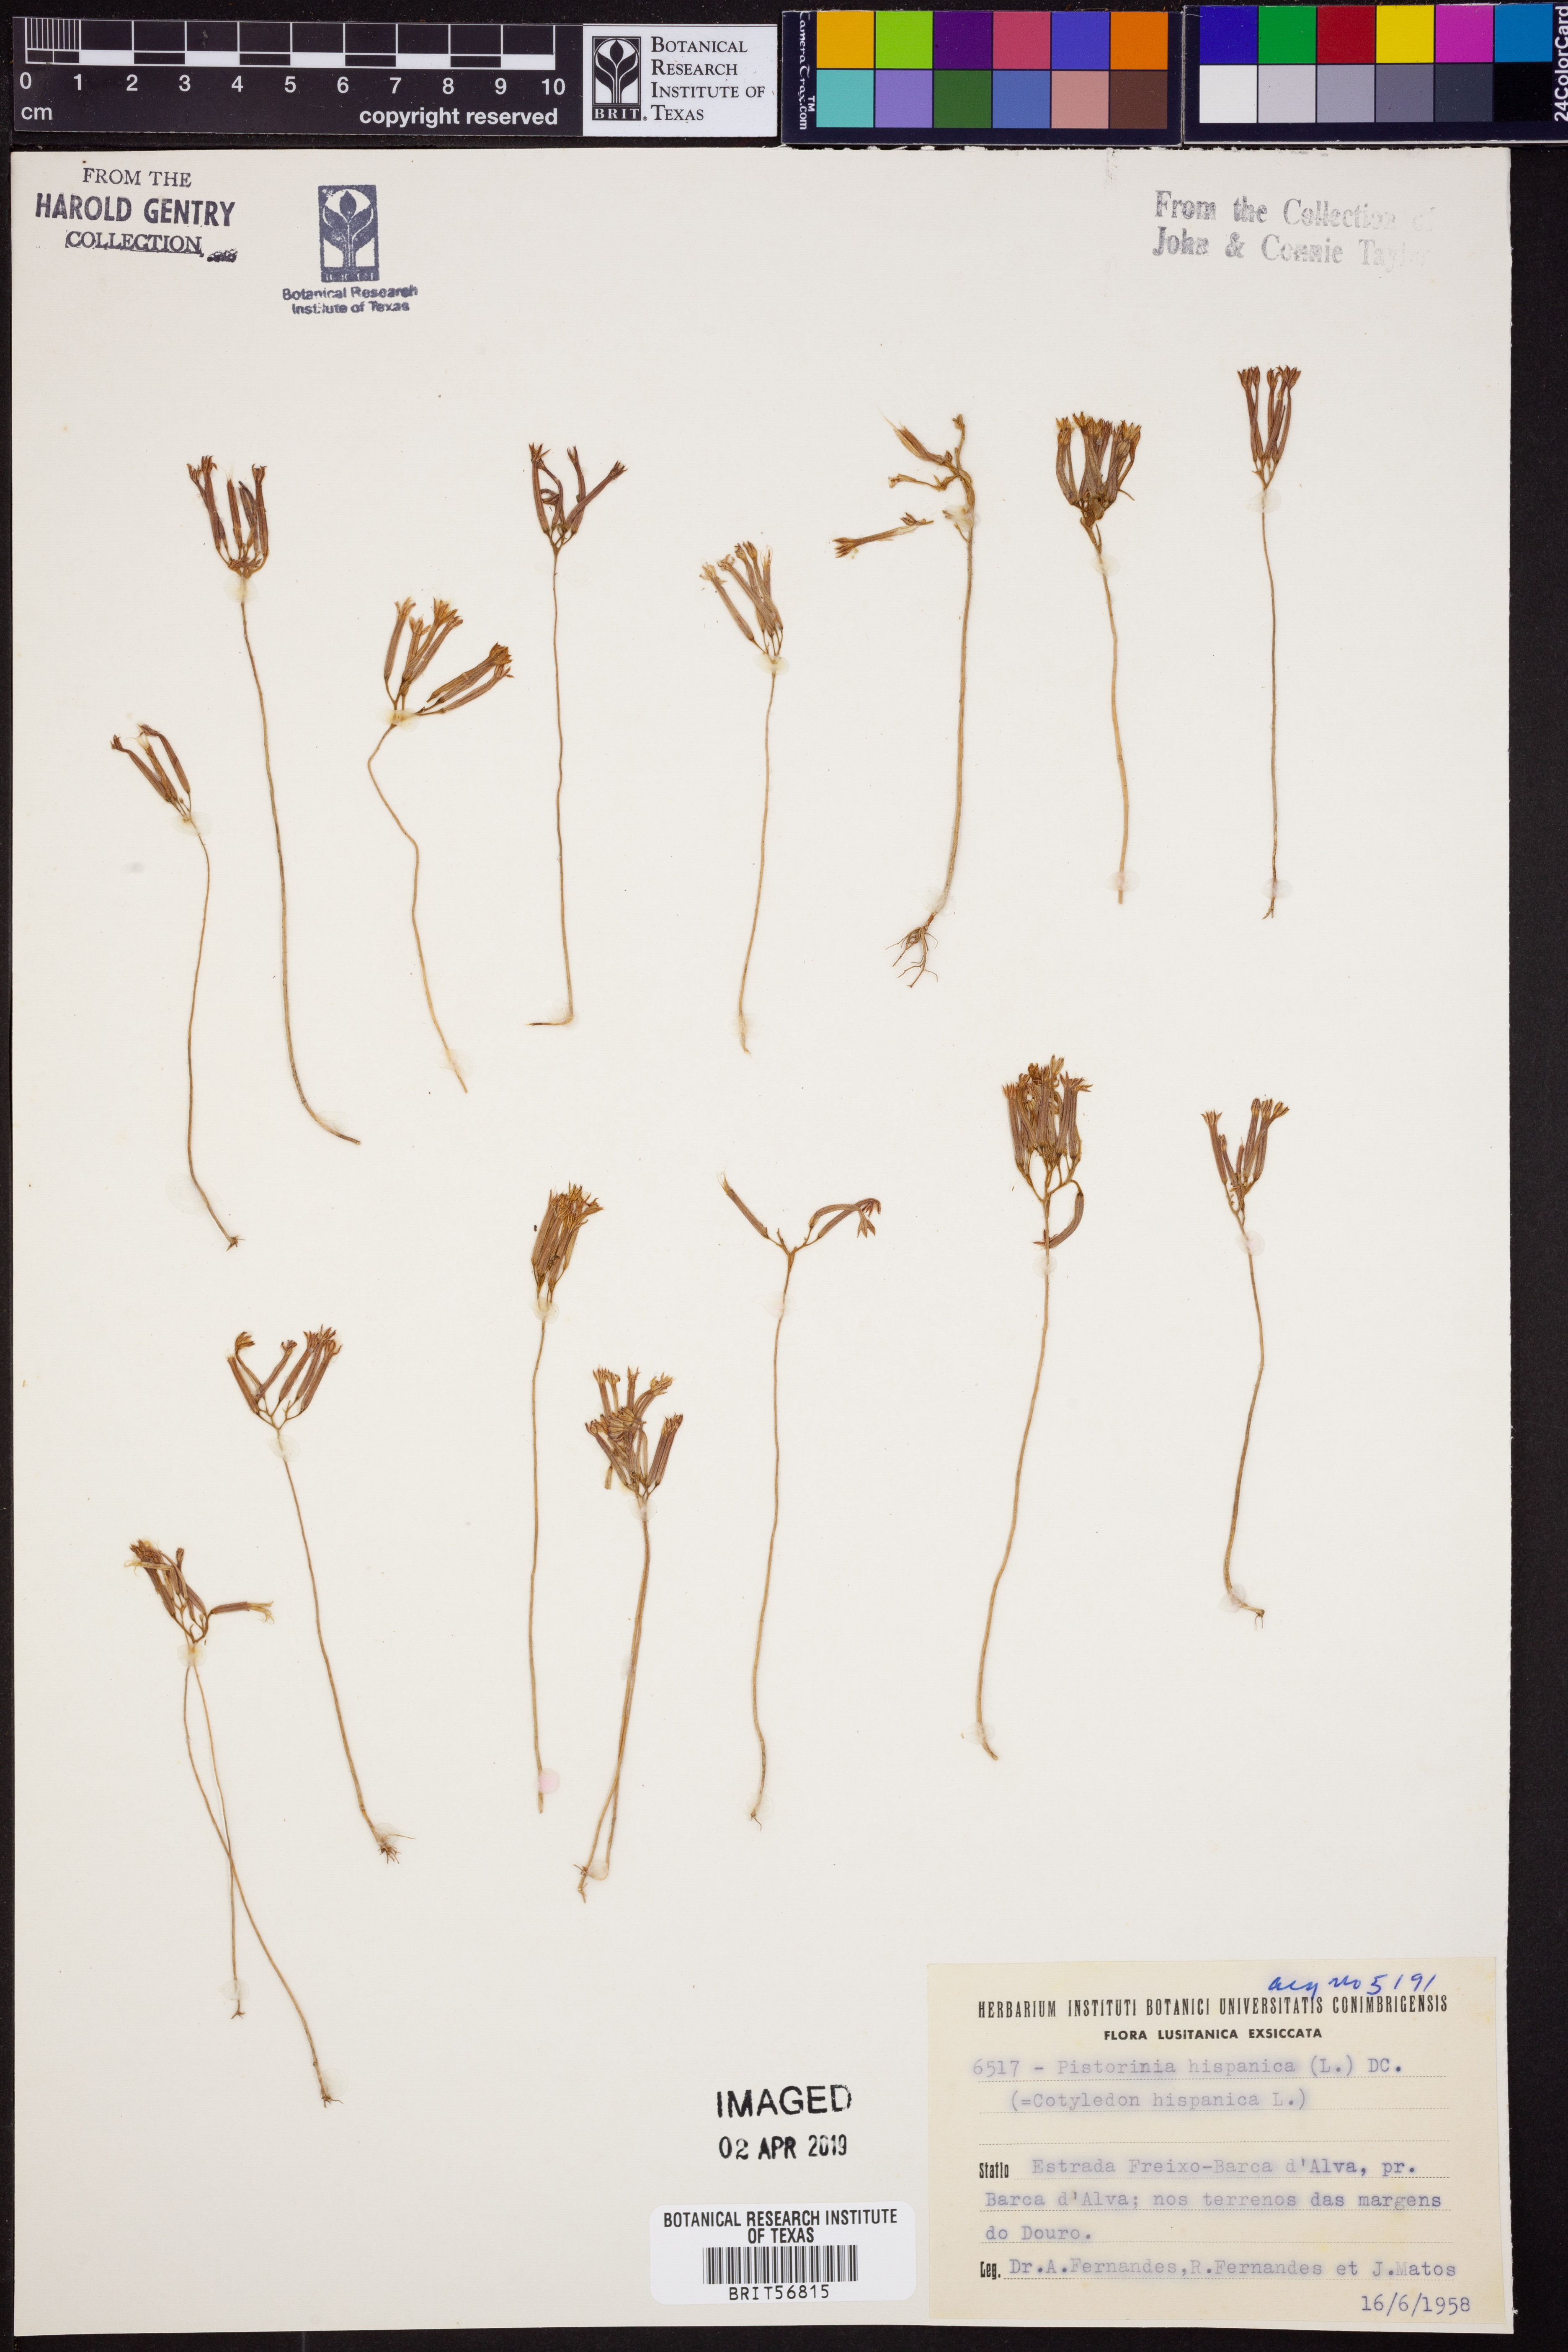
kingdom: Plantae
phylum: Tracheophyta
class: Magnoliopsida
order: Saxifragales
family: Crassulaceae
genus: Pistorinia
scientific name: Pistorinia hispanica
